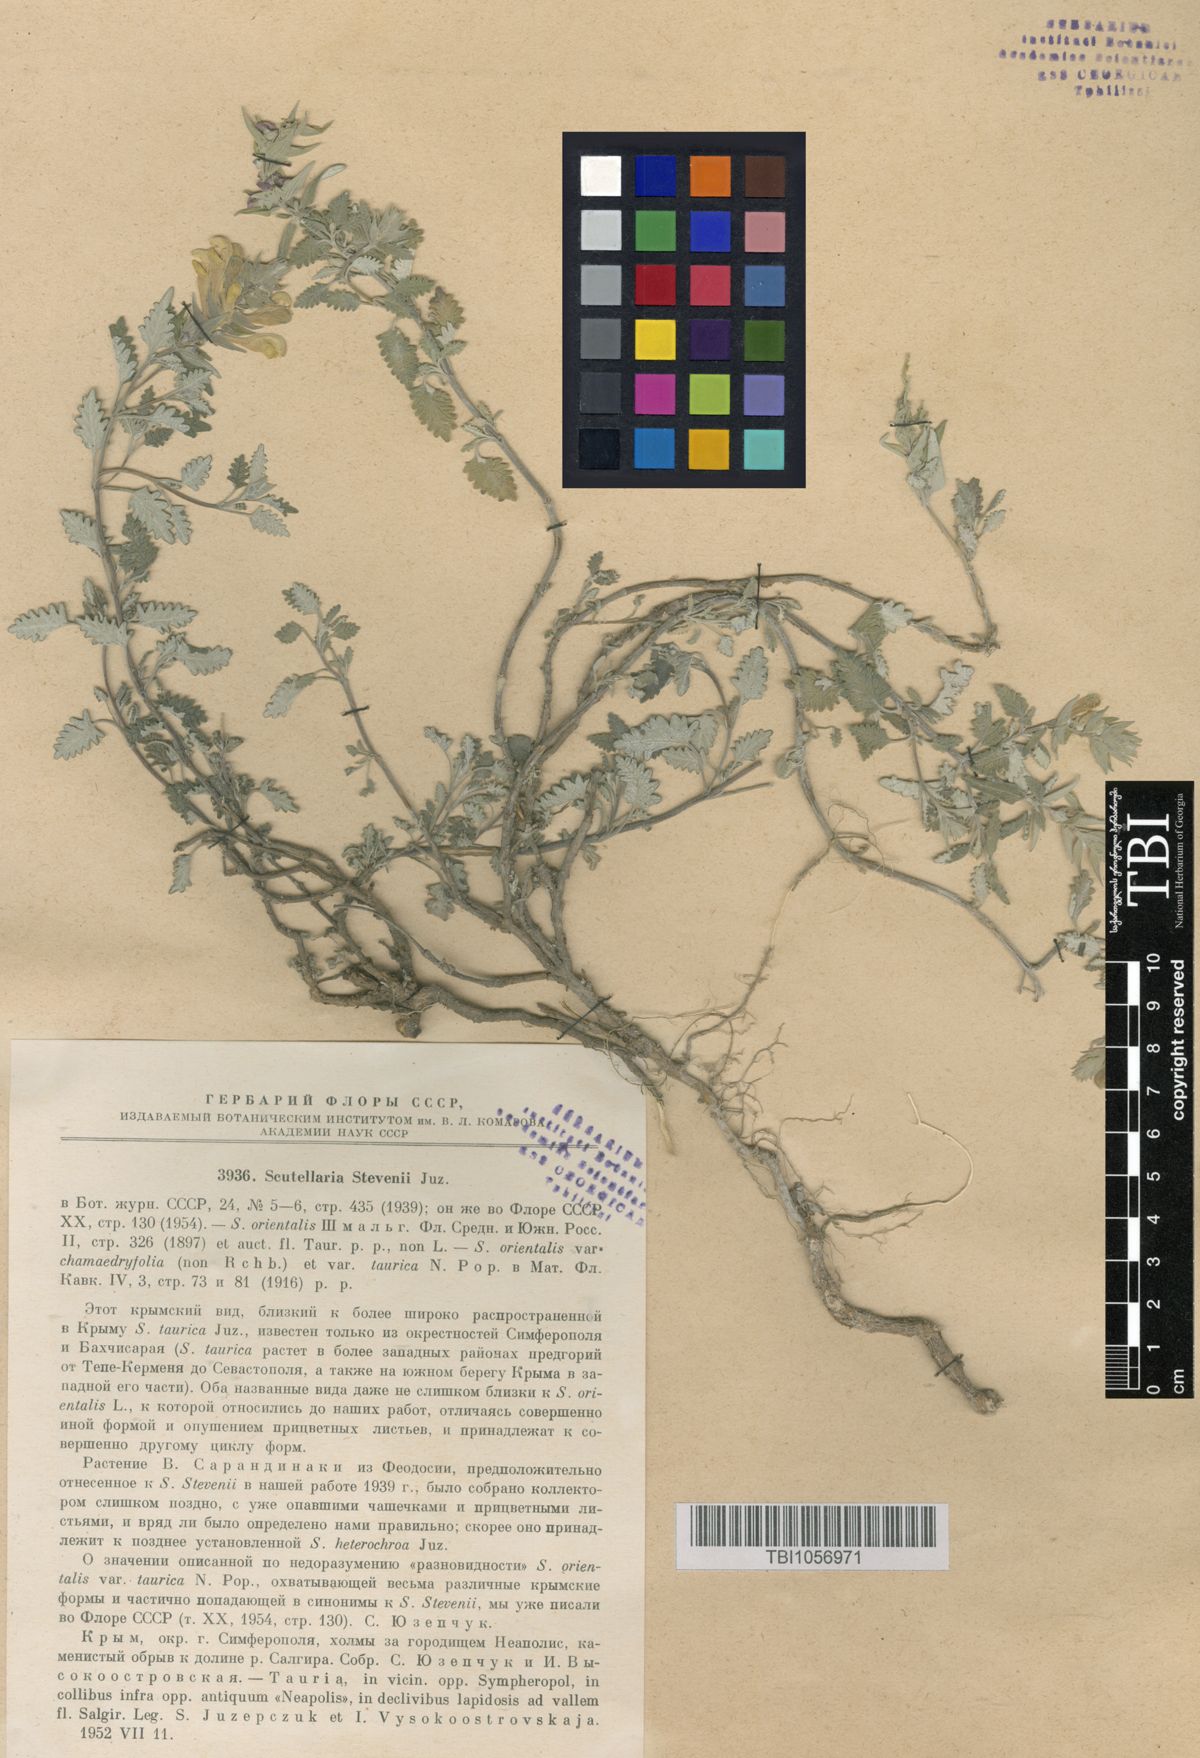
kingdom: Plantae
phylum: Tracheophyta
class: Magnoliopsida
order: Lamiales
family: Lamiaceae
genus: Scutellaria
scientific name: Scutellaria orientalis
